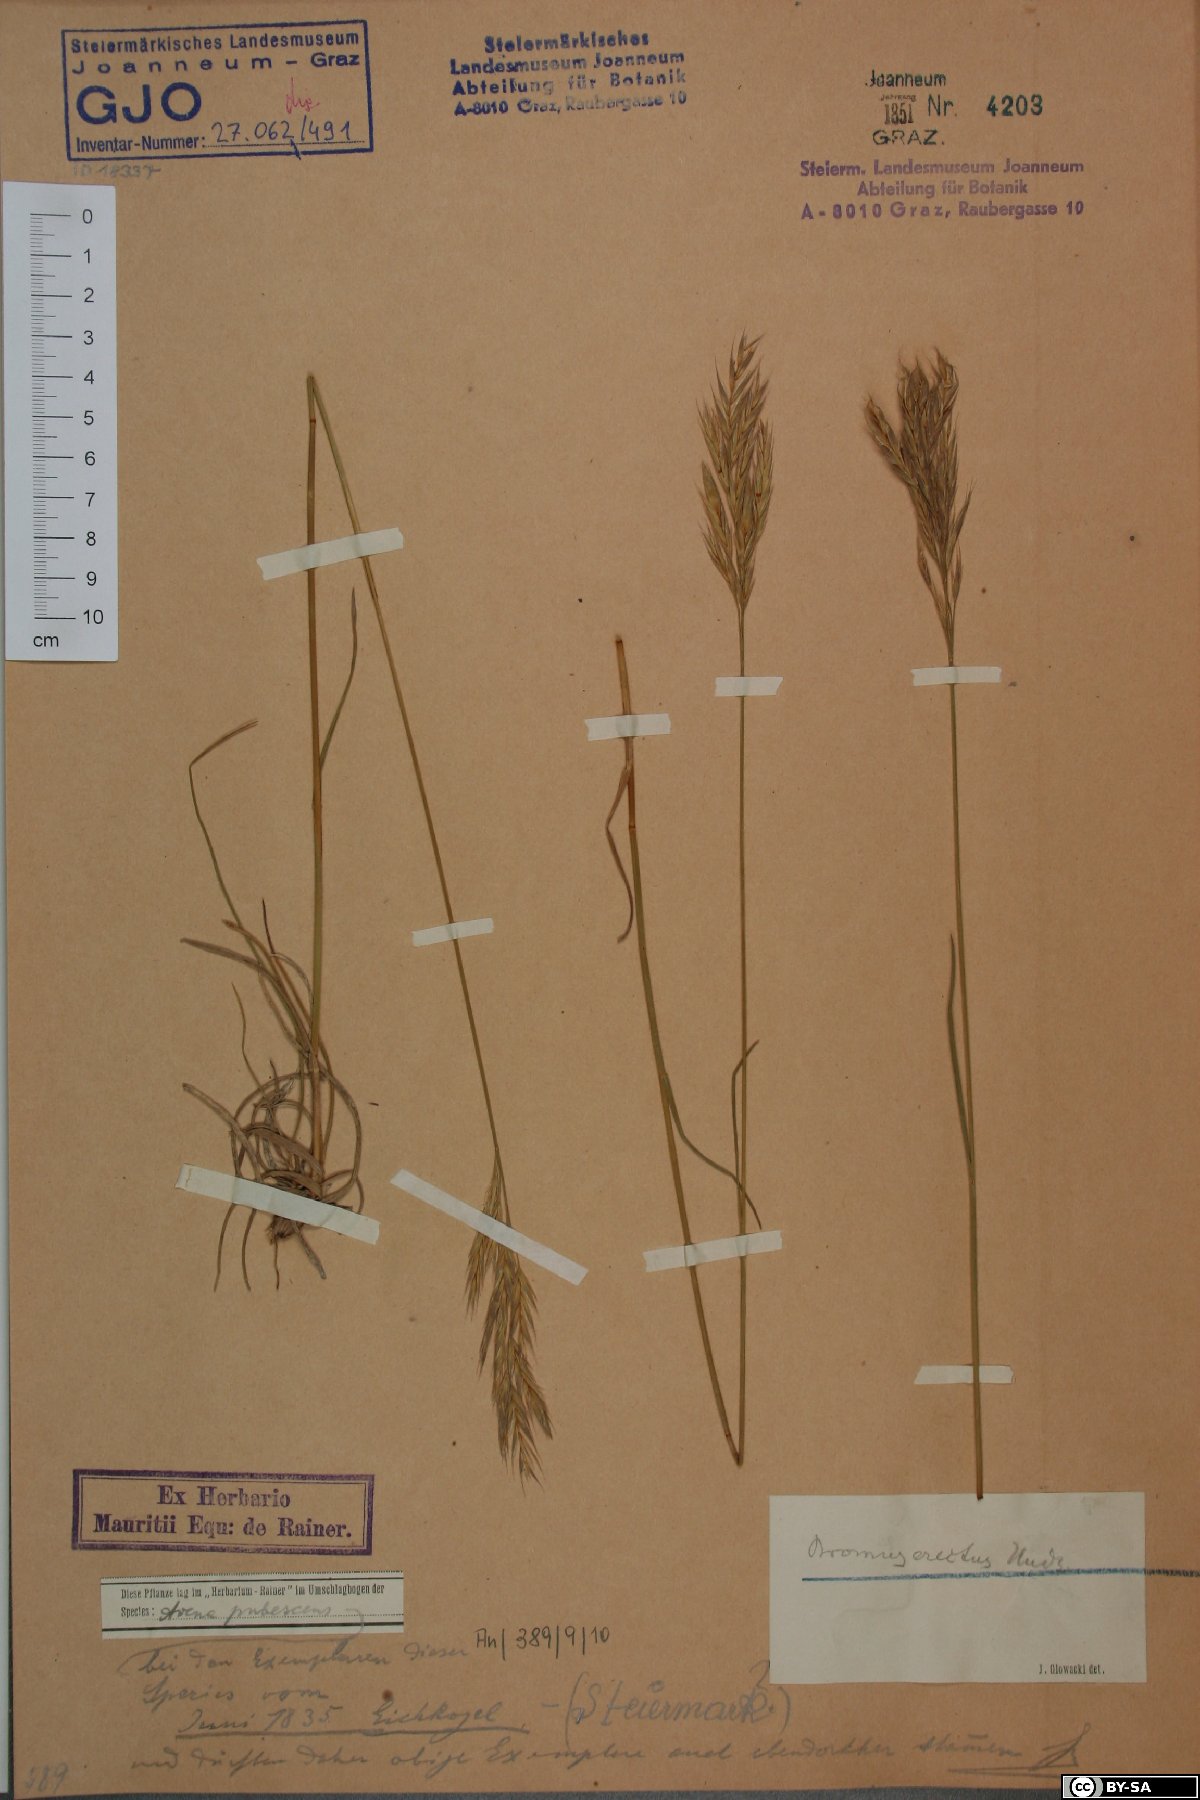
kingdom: Plantae
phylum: Tracheophyta
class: Liliopsida
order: Poales
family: Poaceae
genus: Bromus
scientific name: Bromus erectus
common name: Erect brome
